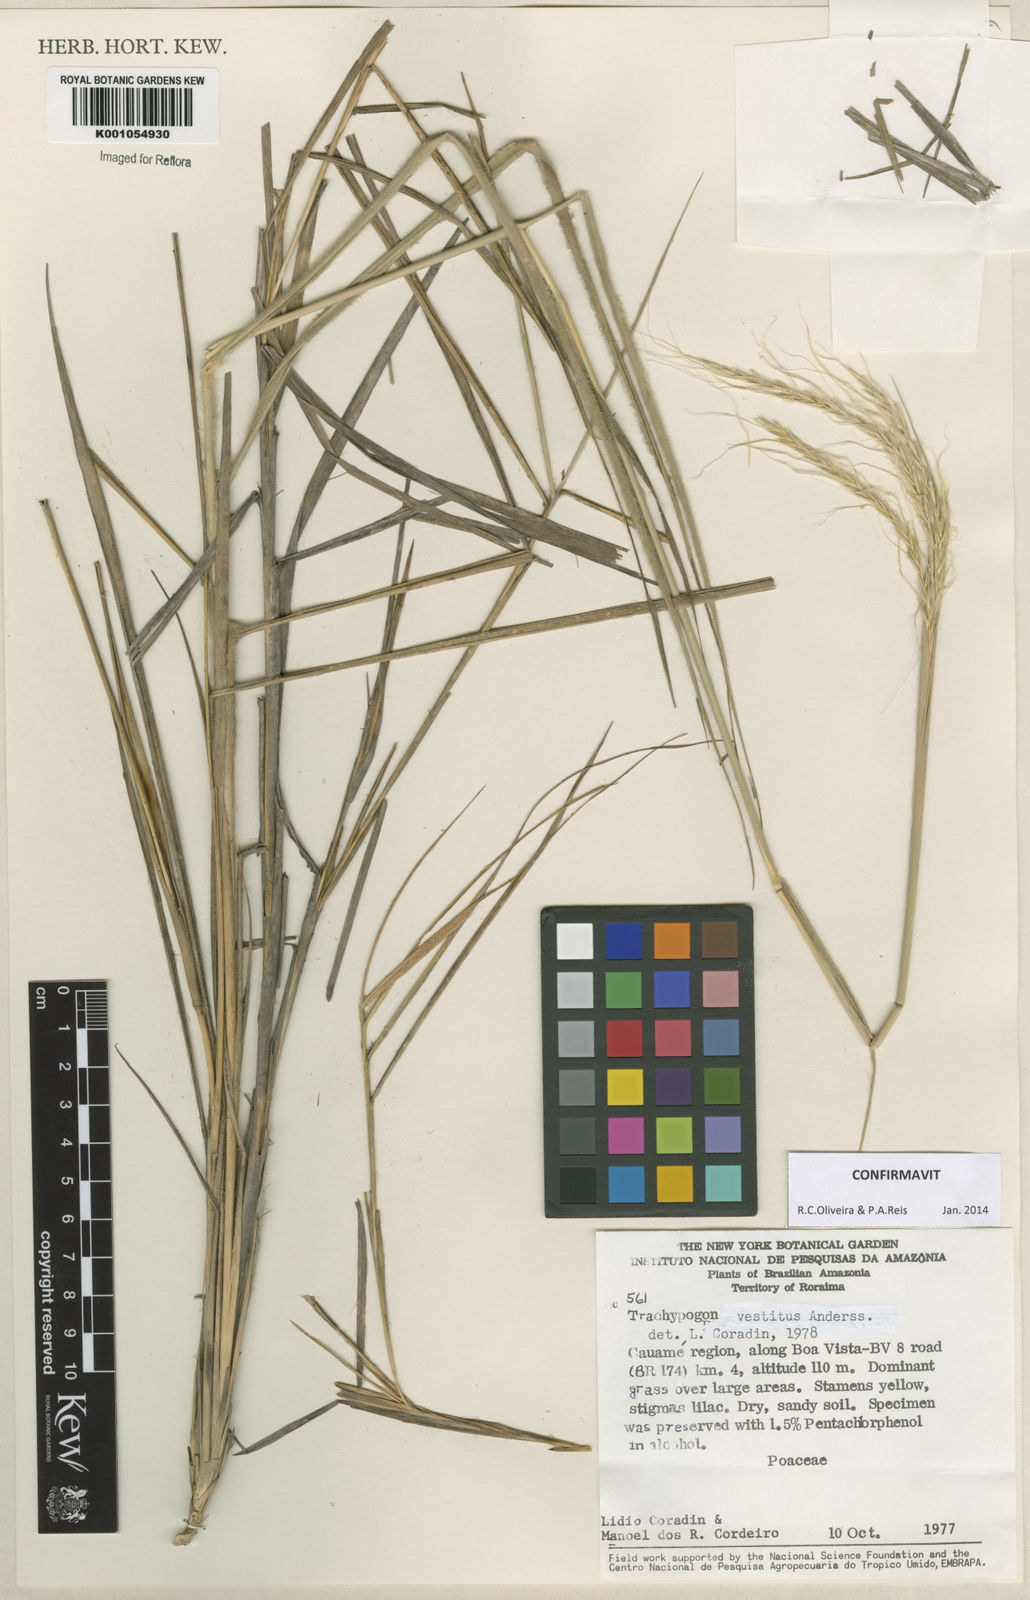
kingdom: Plantae
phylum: Tracheophyta
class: Liliopsida
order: Poales
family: Poaceae
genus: Trachypogon
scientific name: Trachypogon vestitus
